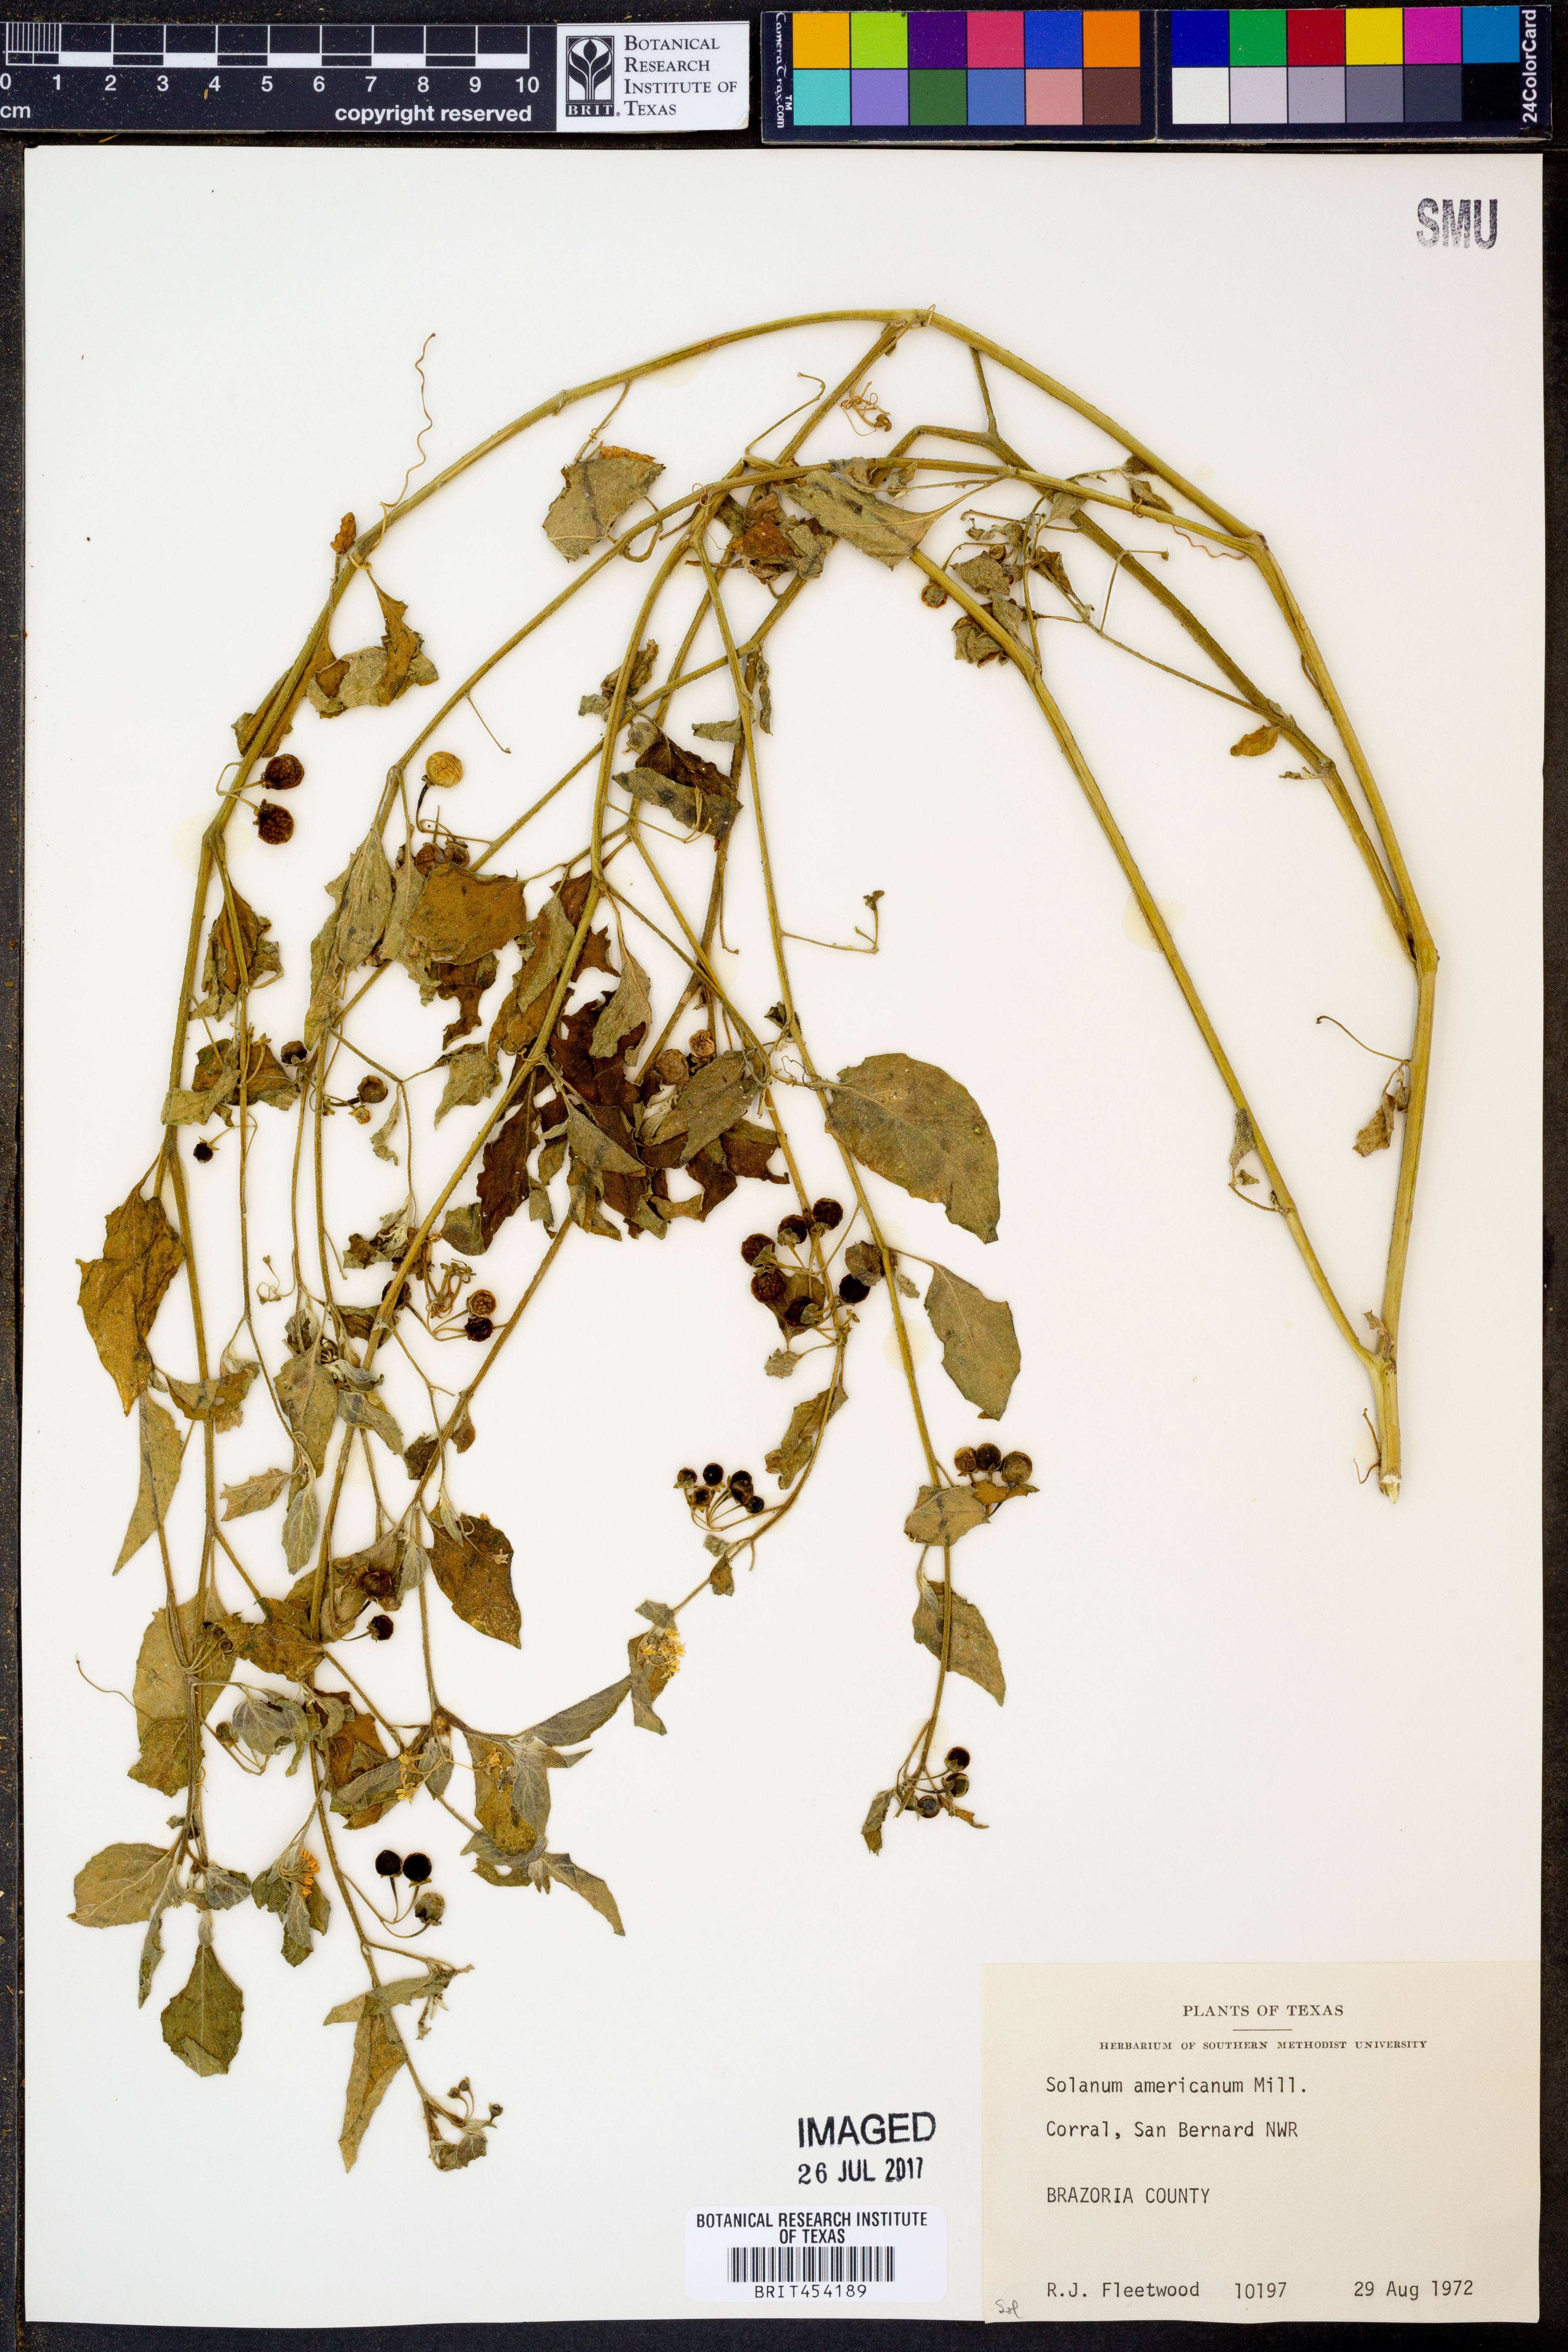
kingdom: Plantae
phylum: Tracheophyta
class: Magnoliopsida
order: Solanales
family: Solanaceae
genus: Solanum
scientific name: Solanum americanum
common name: American black nightshade
